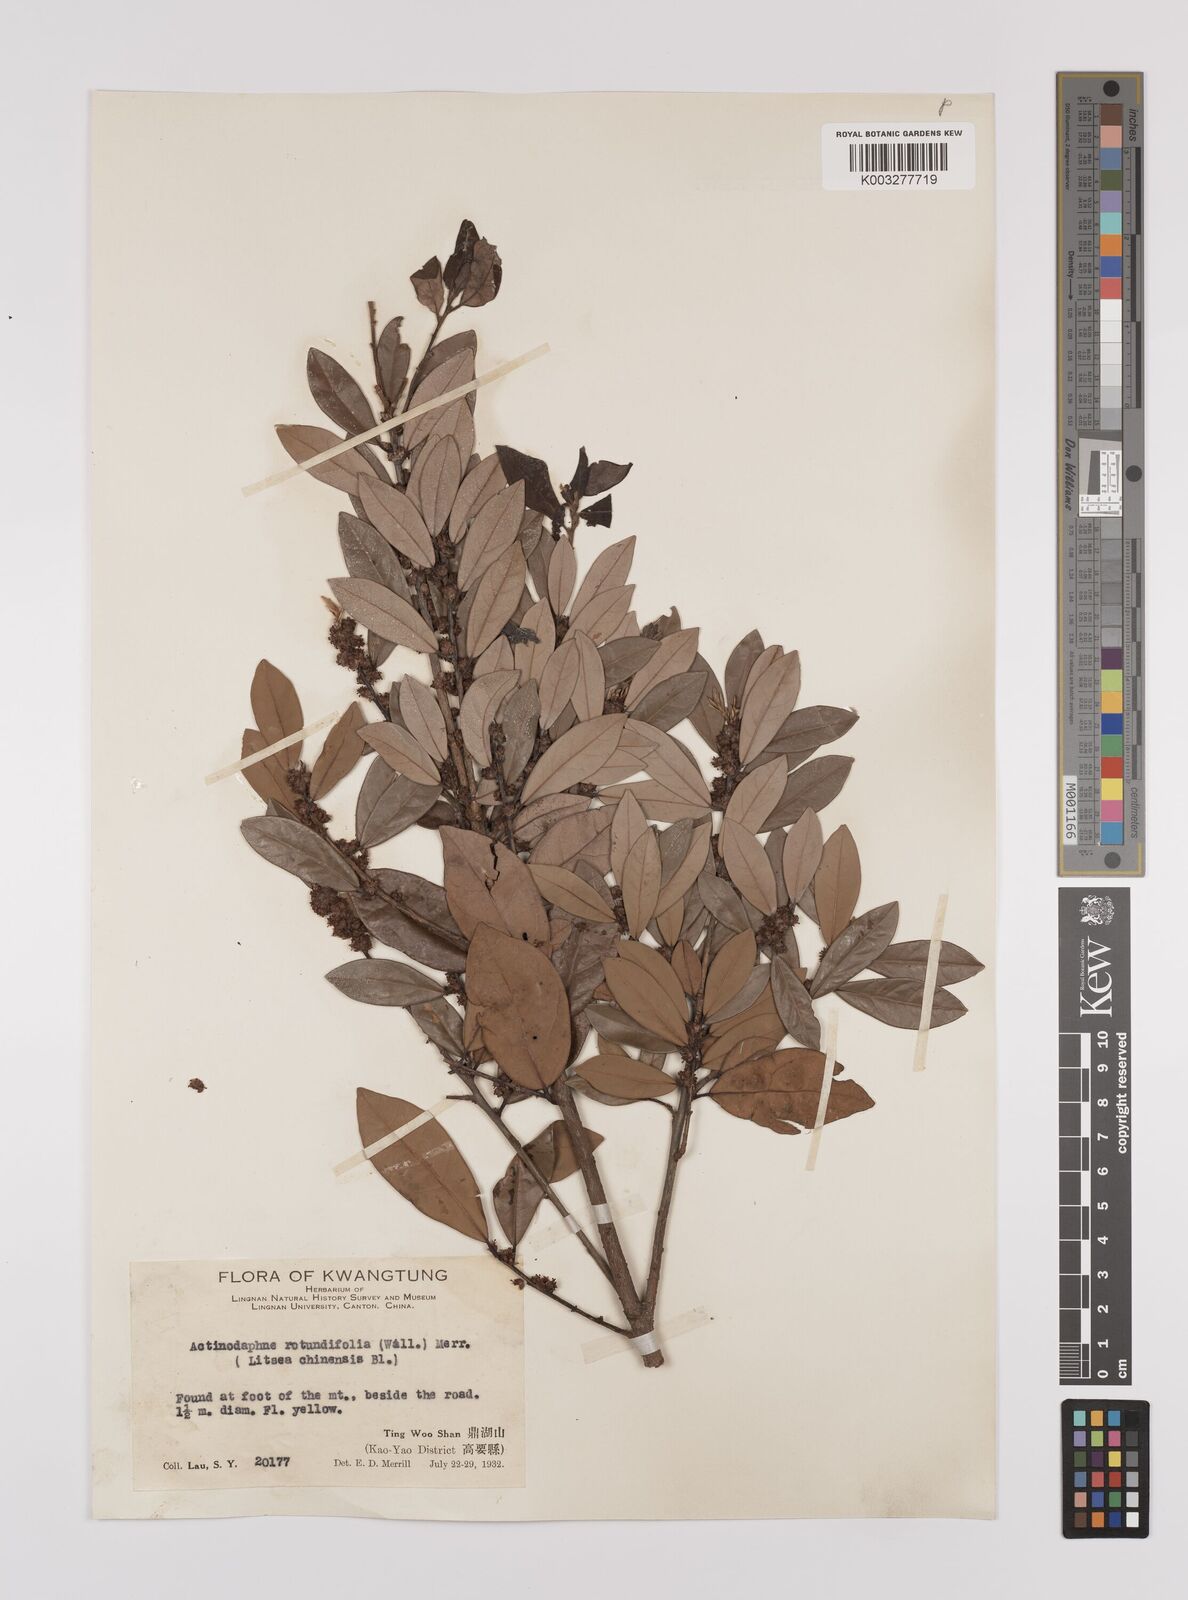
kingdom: Plantae
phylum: Tracheophyta
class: Magnoliopsida
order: Laurales
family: Lauraceae
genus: Litsea
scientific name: Litsea rotundifolia
